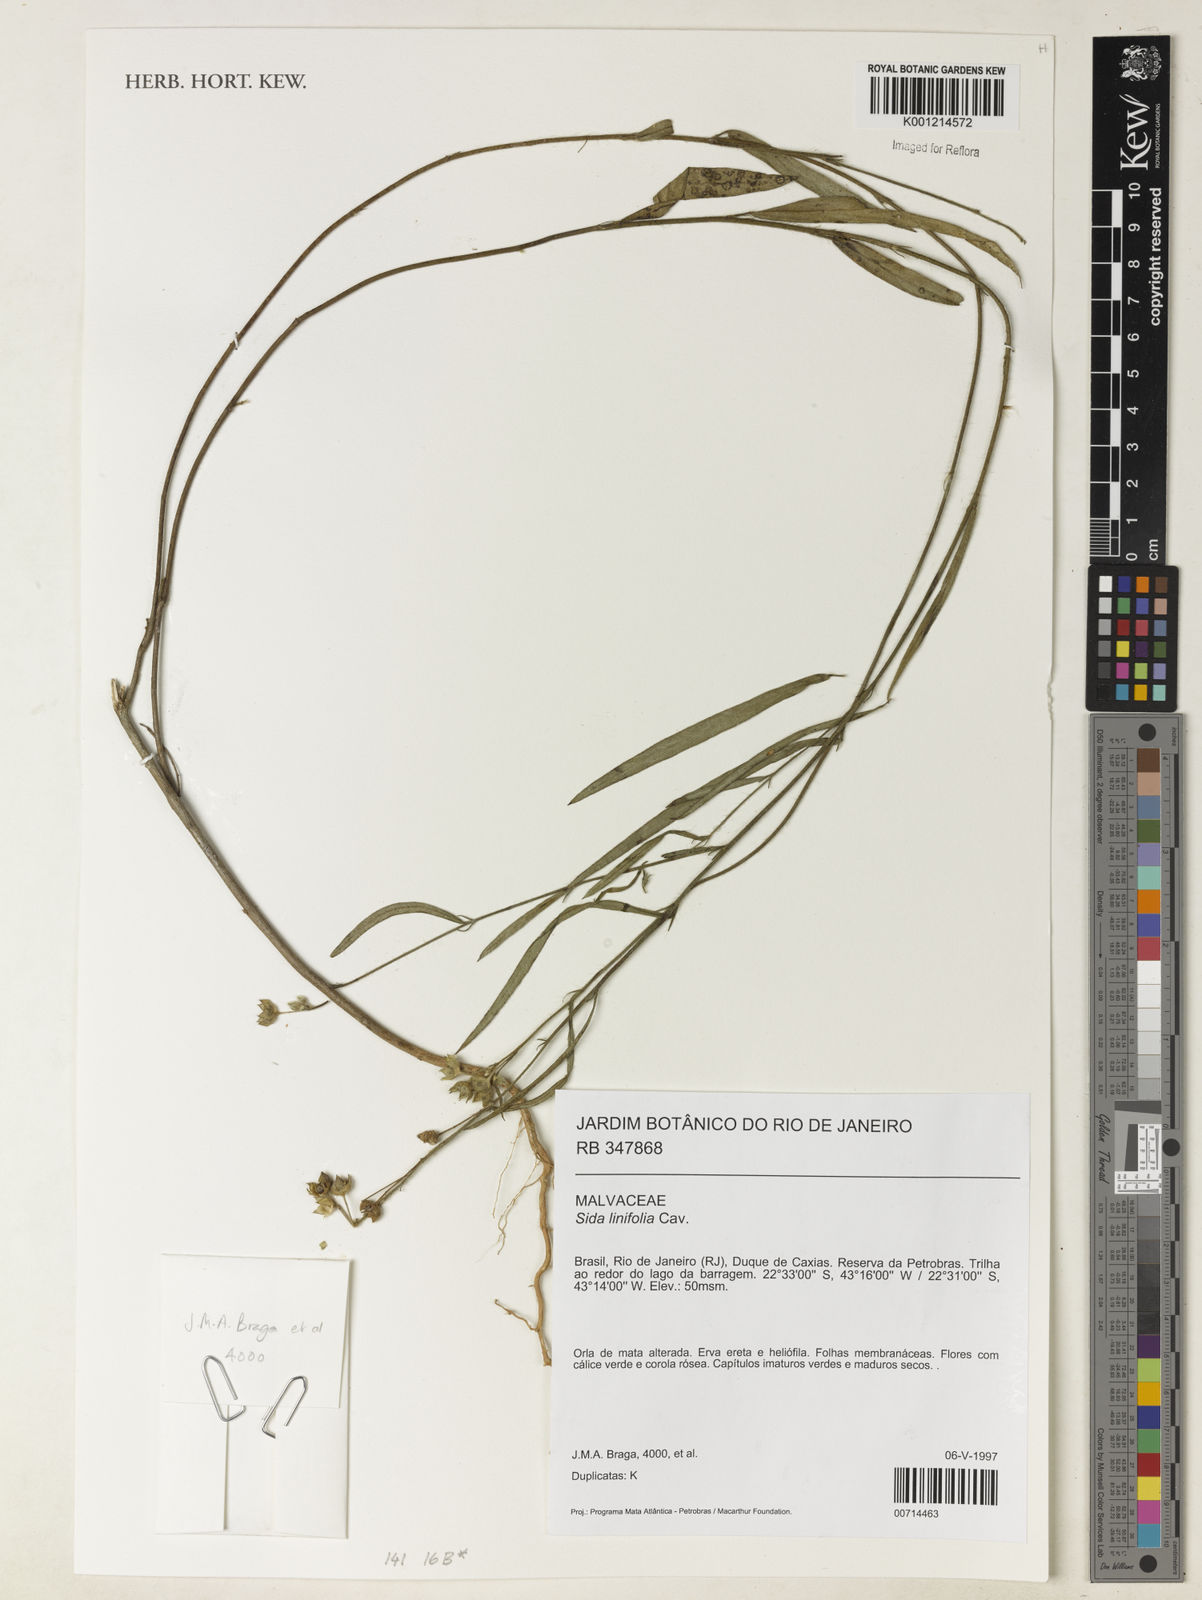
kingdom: Plantae
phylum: Tracheophyta
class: Magnoliopsida
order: Malvales
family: Malvaceae
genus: Sida
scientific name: Sida linifolia
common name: Flaxleaf fanpetals
